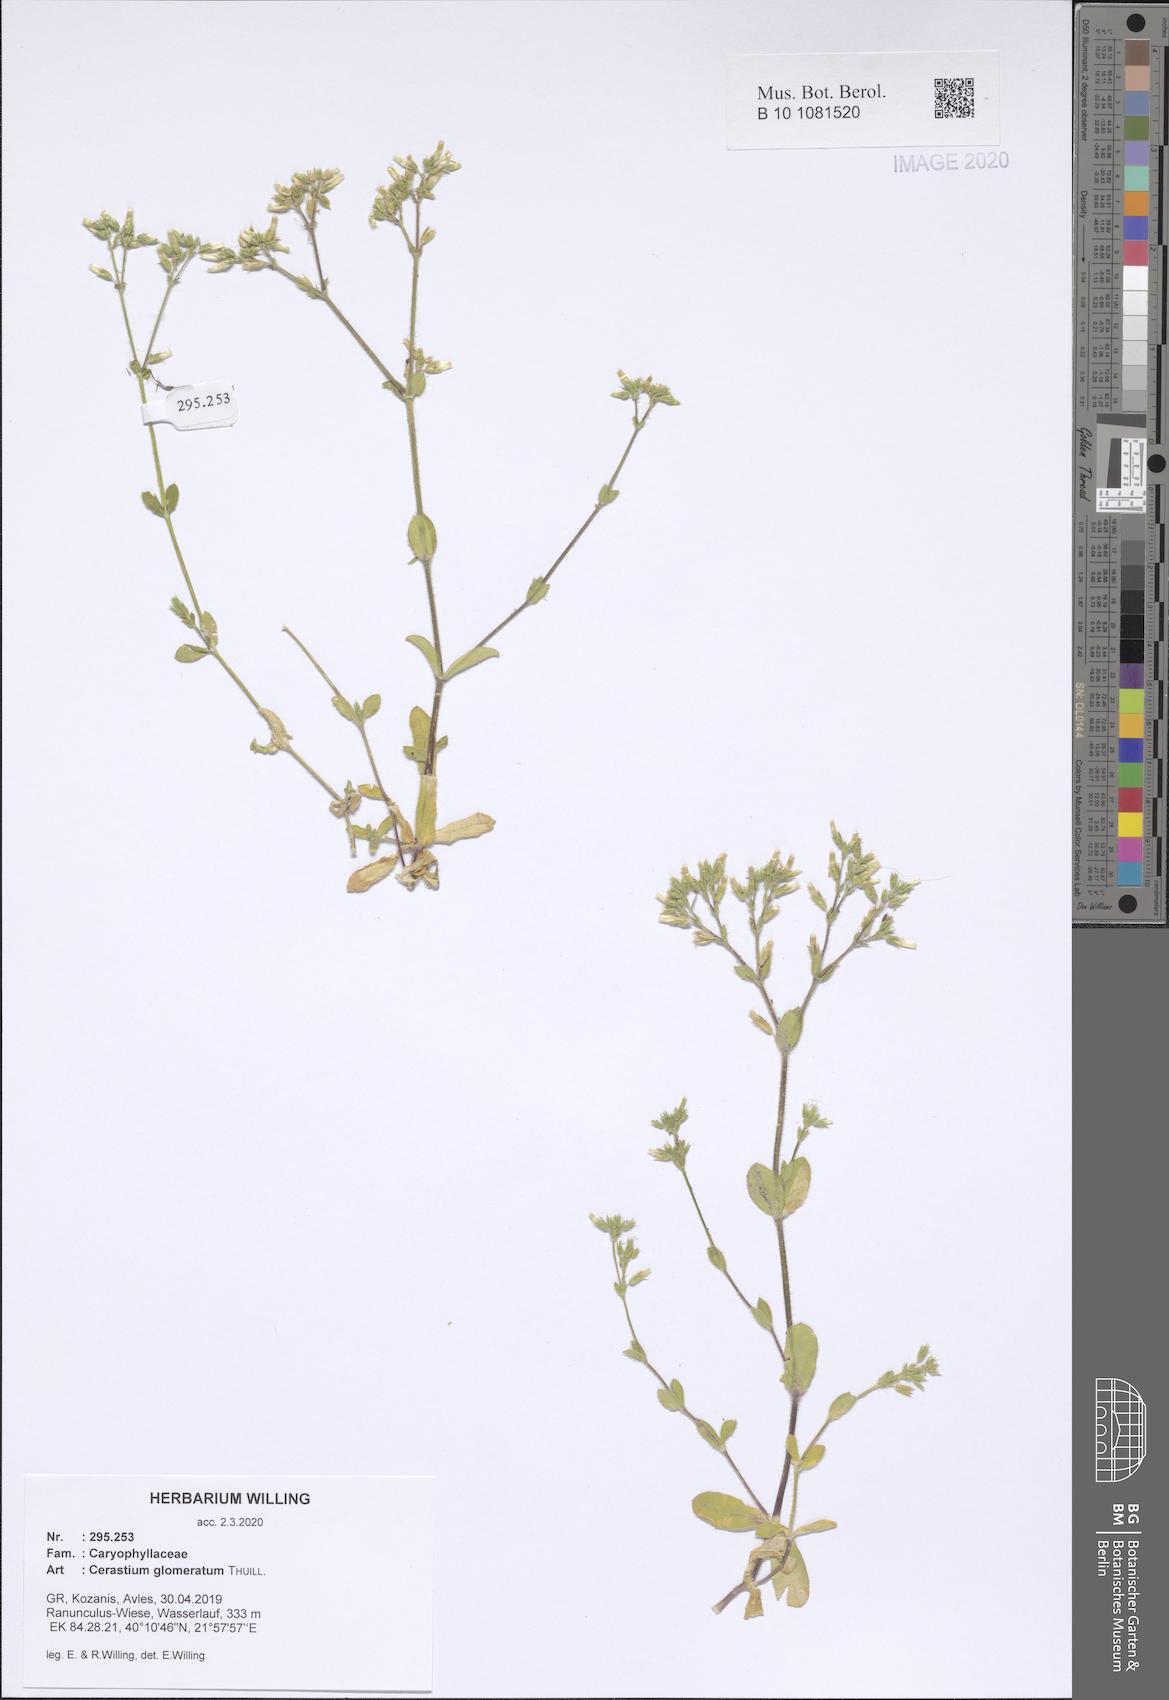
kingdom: Plantae
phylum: Tracheophyta
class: Magnoliopsida
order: Caryophyllales
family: Caryophyllaceae
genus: Cerastium
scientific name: Cerastium glomeratum
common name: Sticky chickweed
